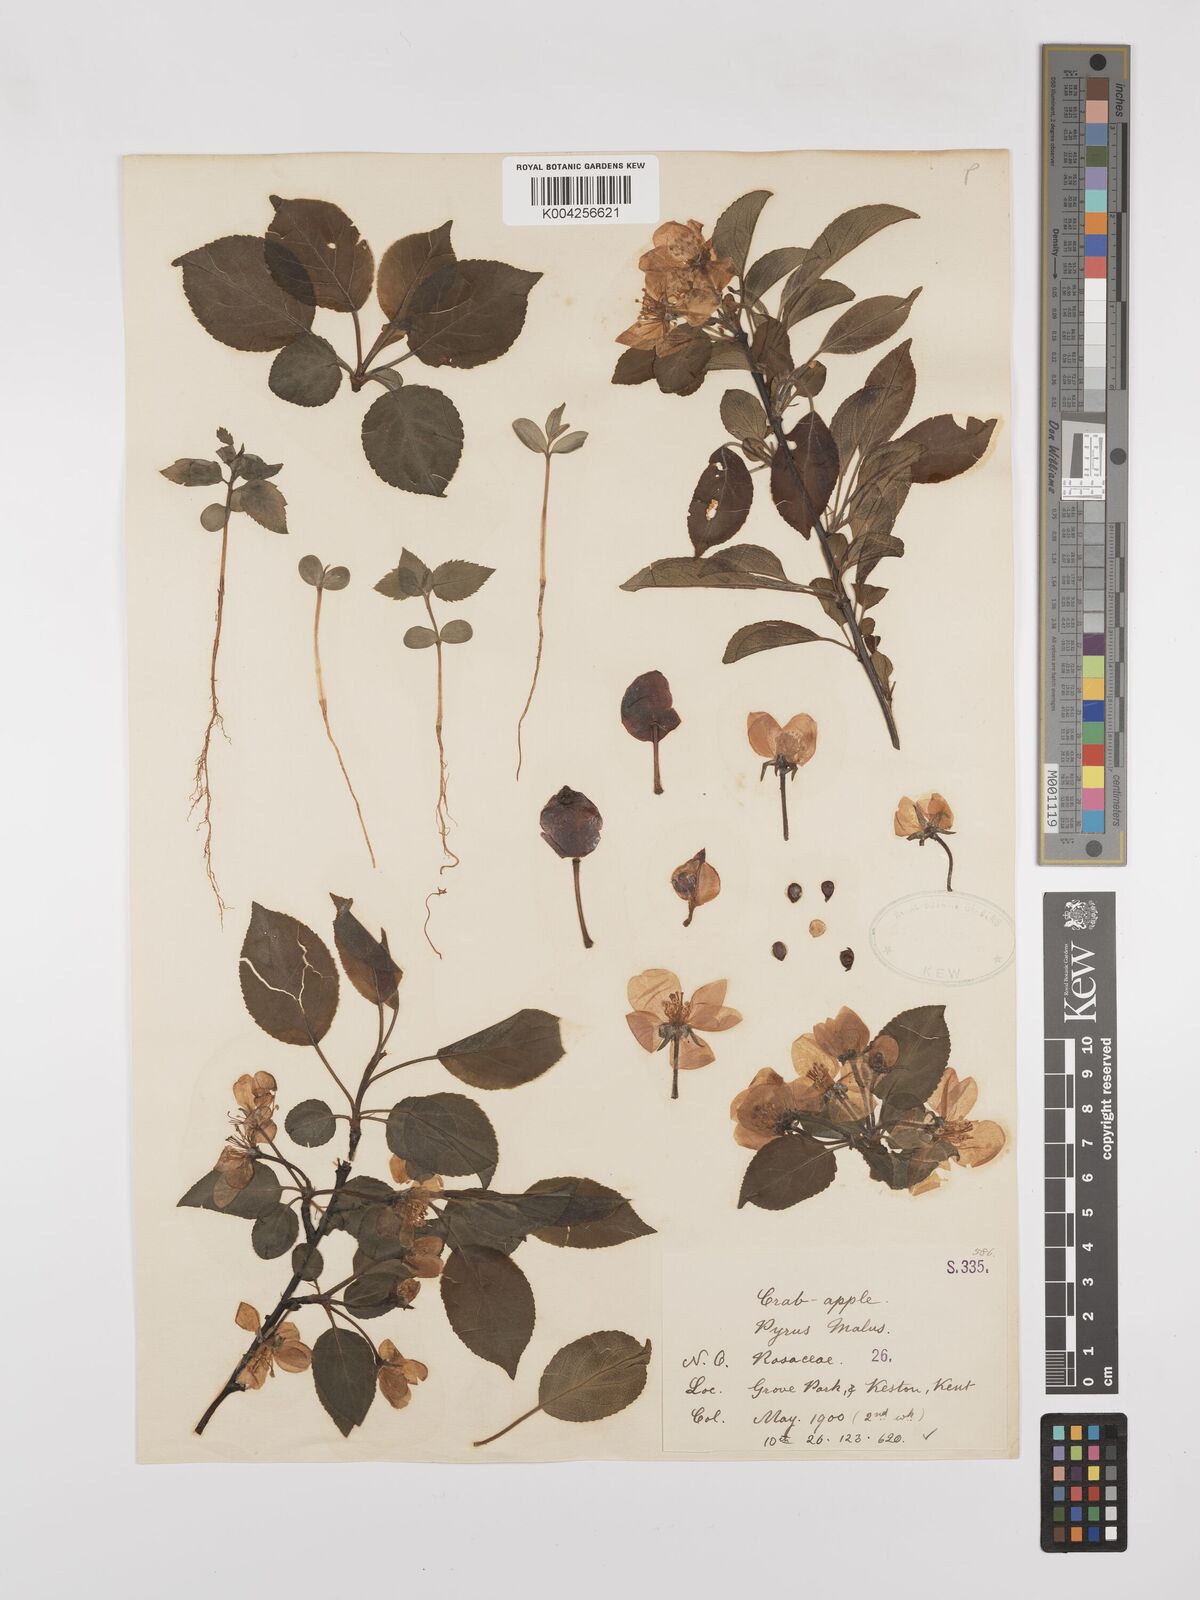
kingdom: Plantae
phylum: Tracheophyta
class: Magnoliopsida
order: Rosales
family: Rosaceae
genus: Malus
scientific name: Malus sylvestris
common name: Crab apple
